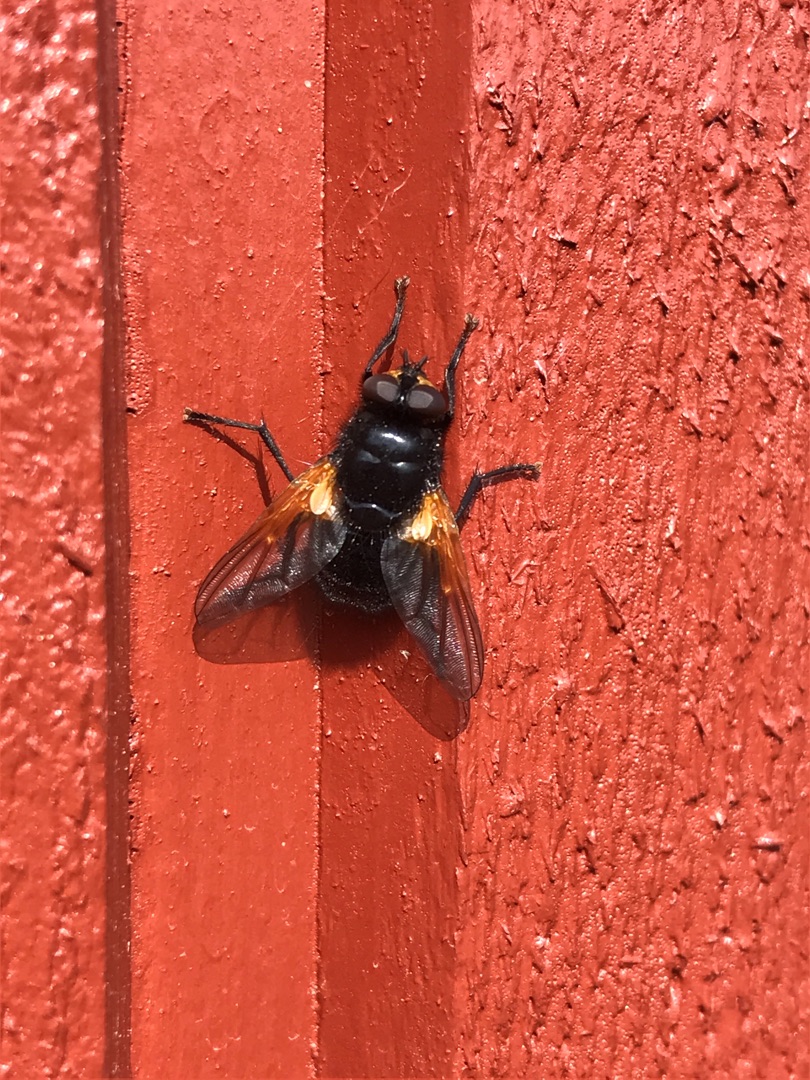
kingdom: Animalia
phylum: Arthropoda
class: Insecta
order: Diptera
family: Muscidae
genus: Mesembrina
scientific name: Mesembrina meridiana
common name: Gulvinget flue
